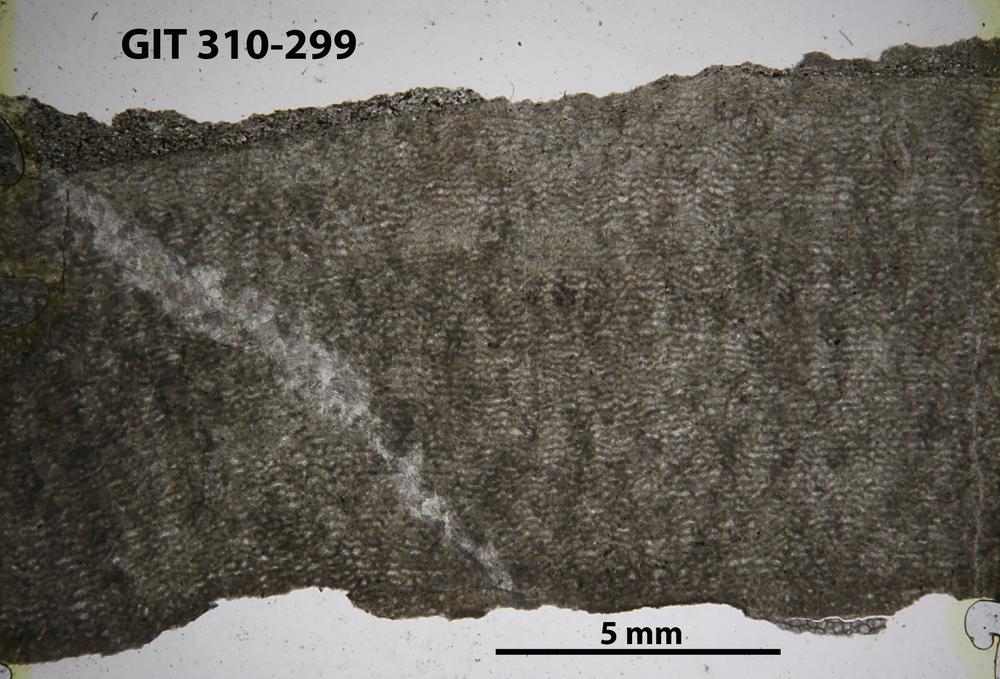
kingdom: Animalia
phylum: Porifera
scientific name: Porifera
